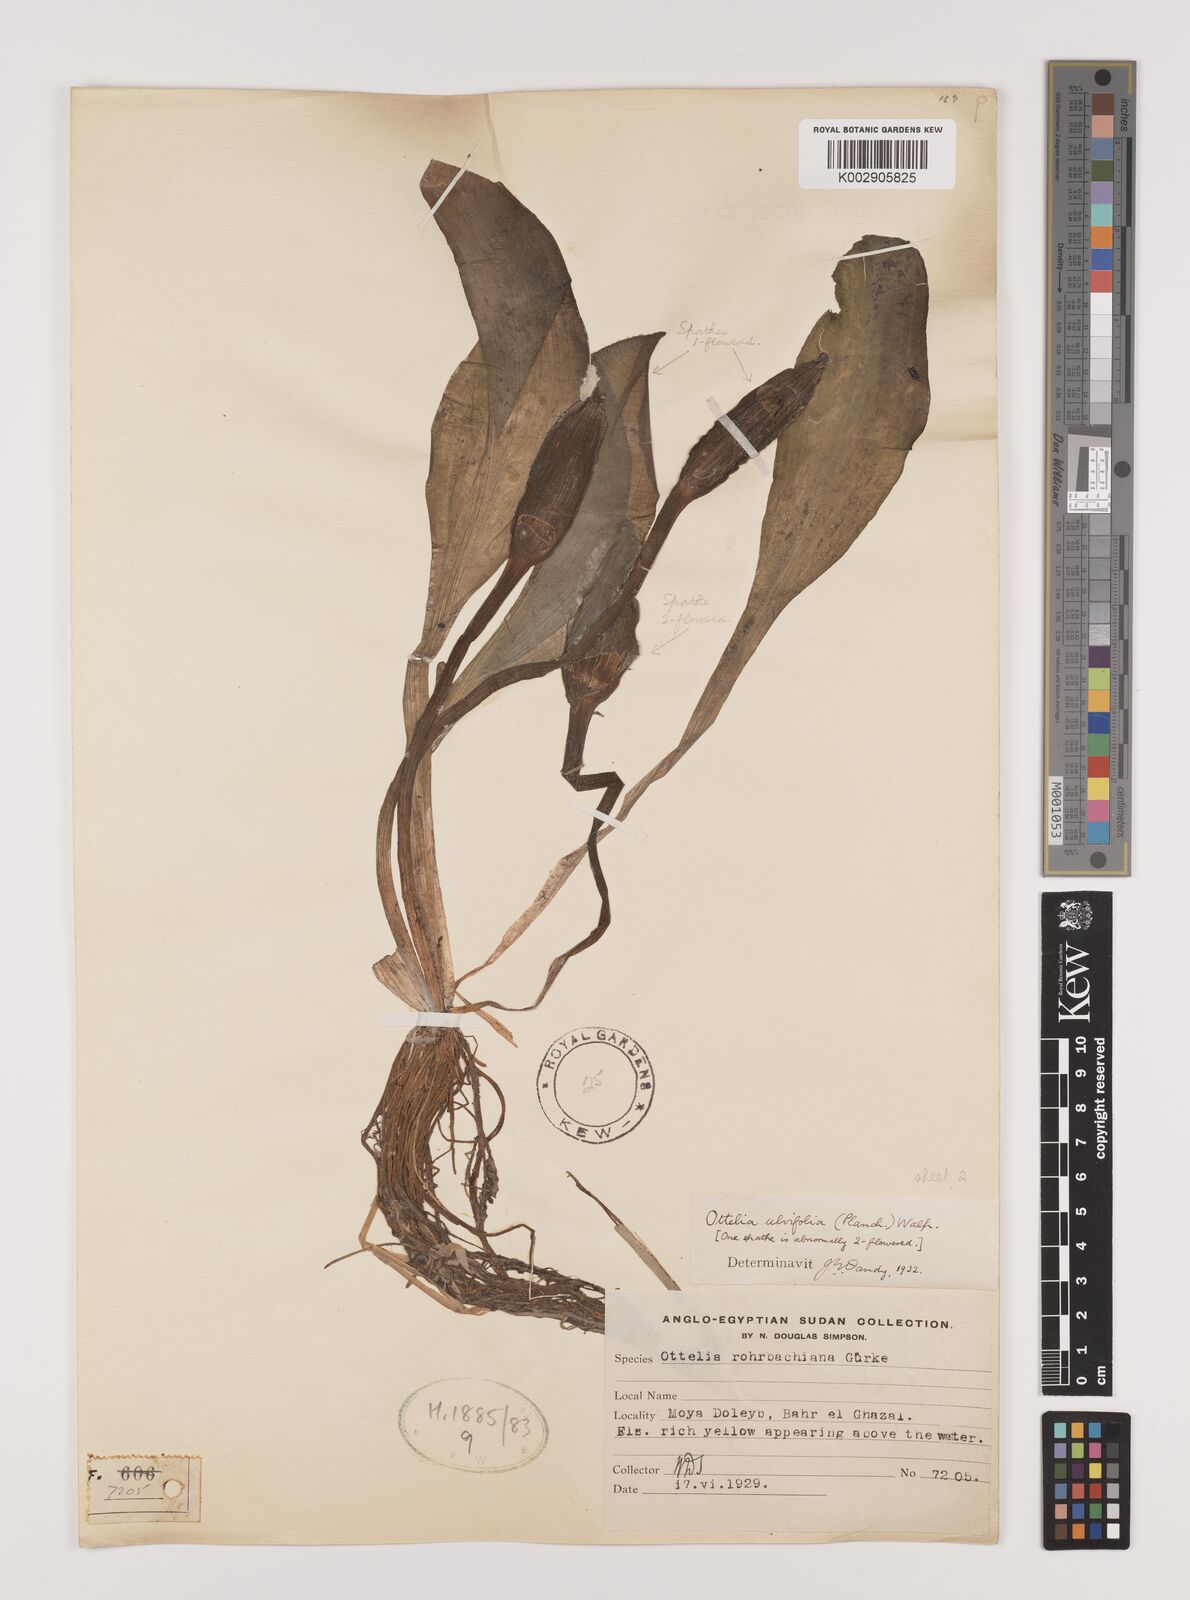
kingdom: Plantae
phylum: Tracheophyta
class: Liliopsida
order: Alismatales
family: Hydrocharitaceae
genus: Ottelia
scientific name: Ottelia ulvifolia
